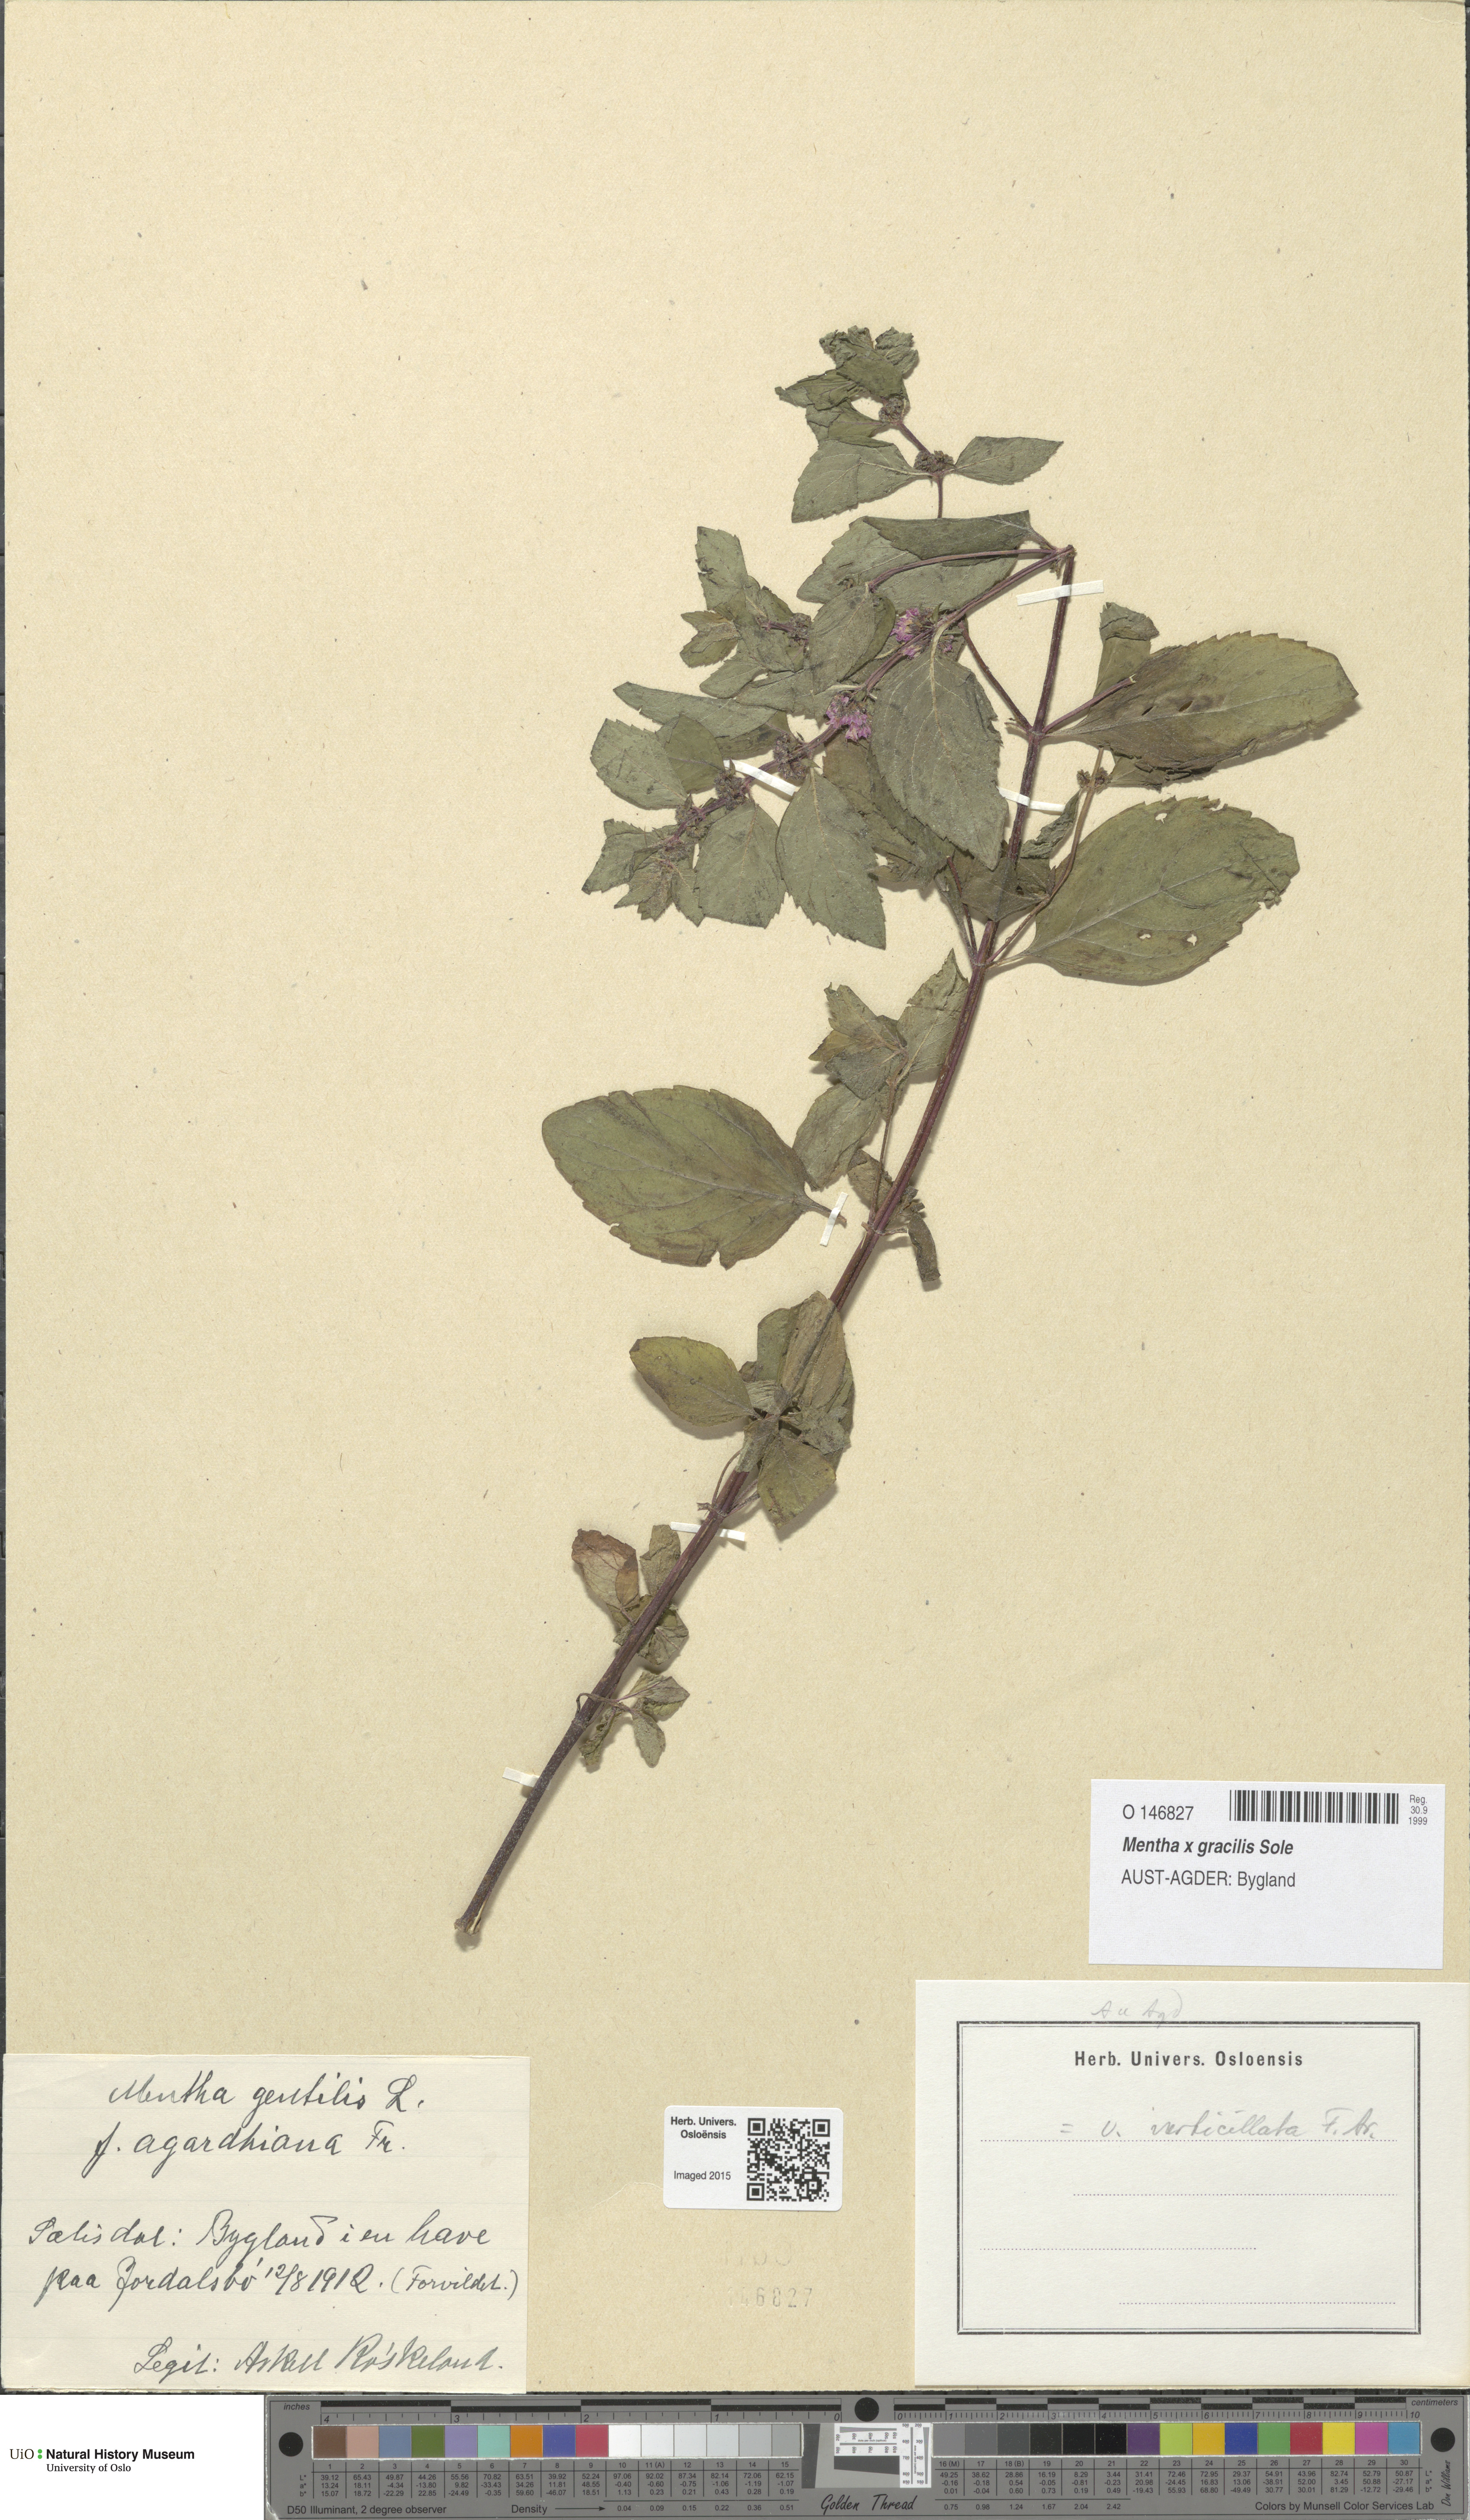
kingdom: Plantae
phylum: Tracheophyta
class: Magnoliopsida
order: Lamiales
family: Lamiaceae
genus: Mentha
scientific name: Mentha arvensis
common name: Corn mint
